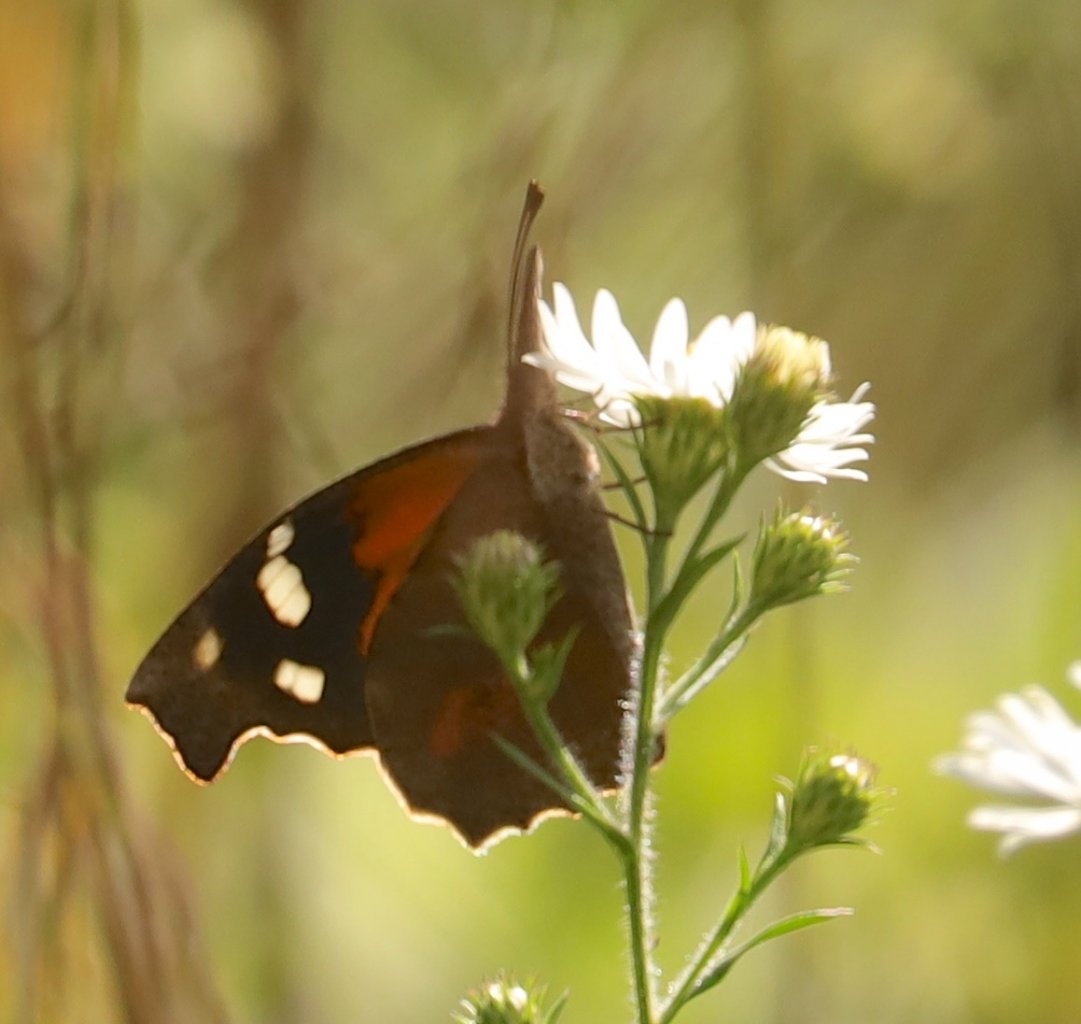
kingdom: Animalia
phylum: Arthropoda
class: Insecta
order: Lepidoptera
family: Nymphalidae
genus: Libytheana
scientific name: Libytheana carinenta
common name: American Snout
